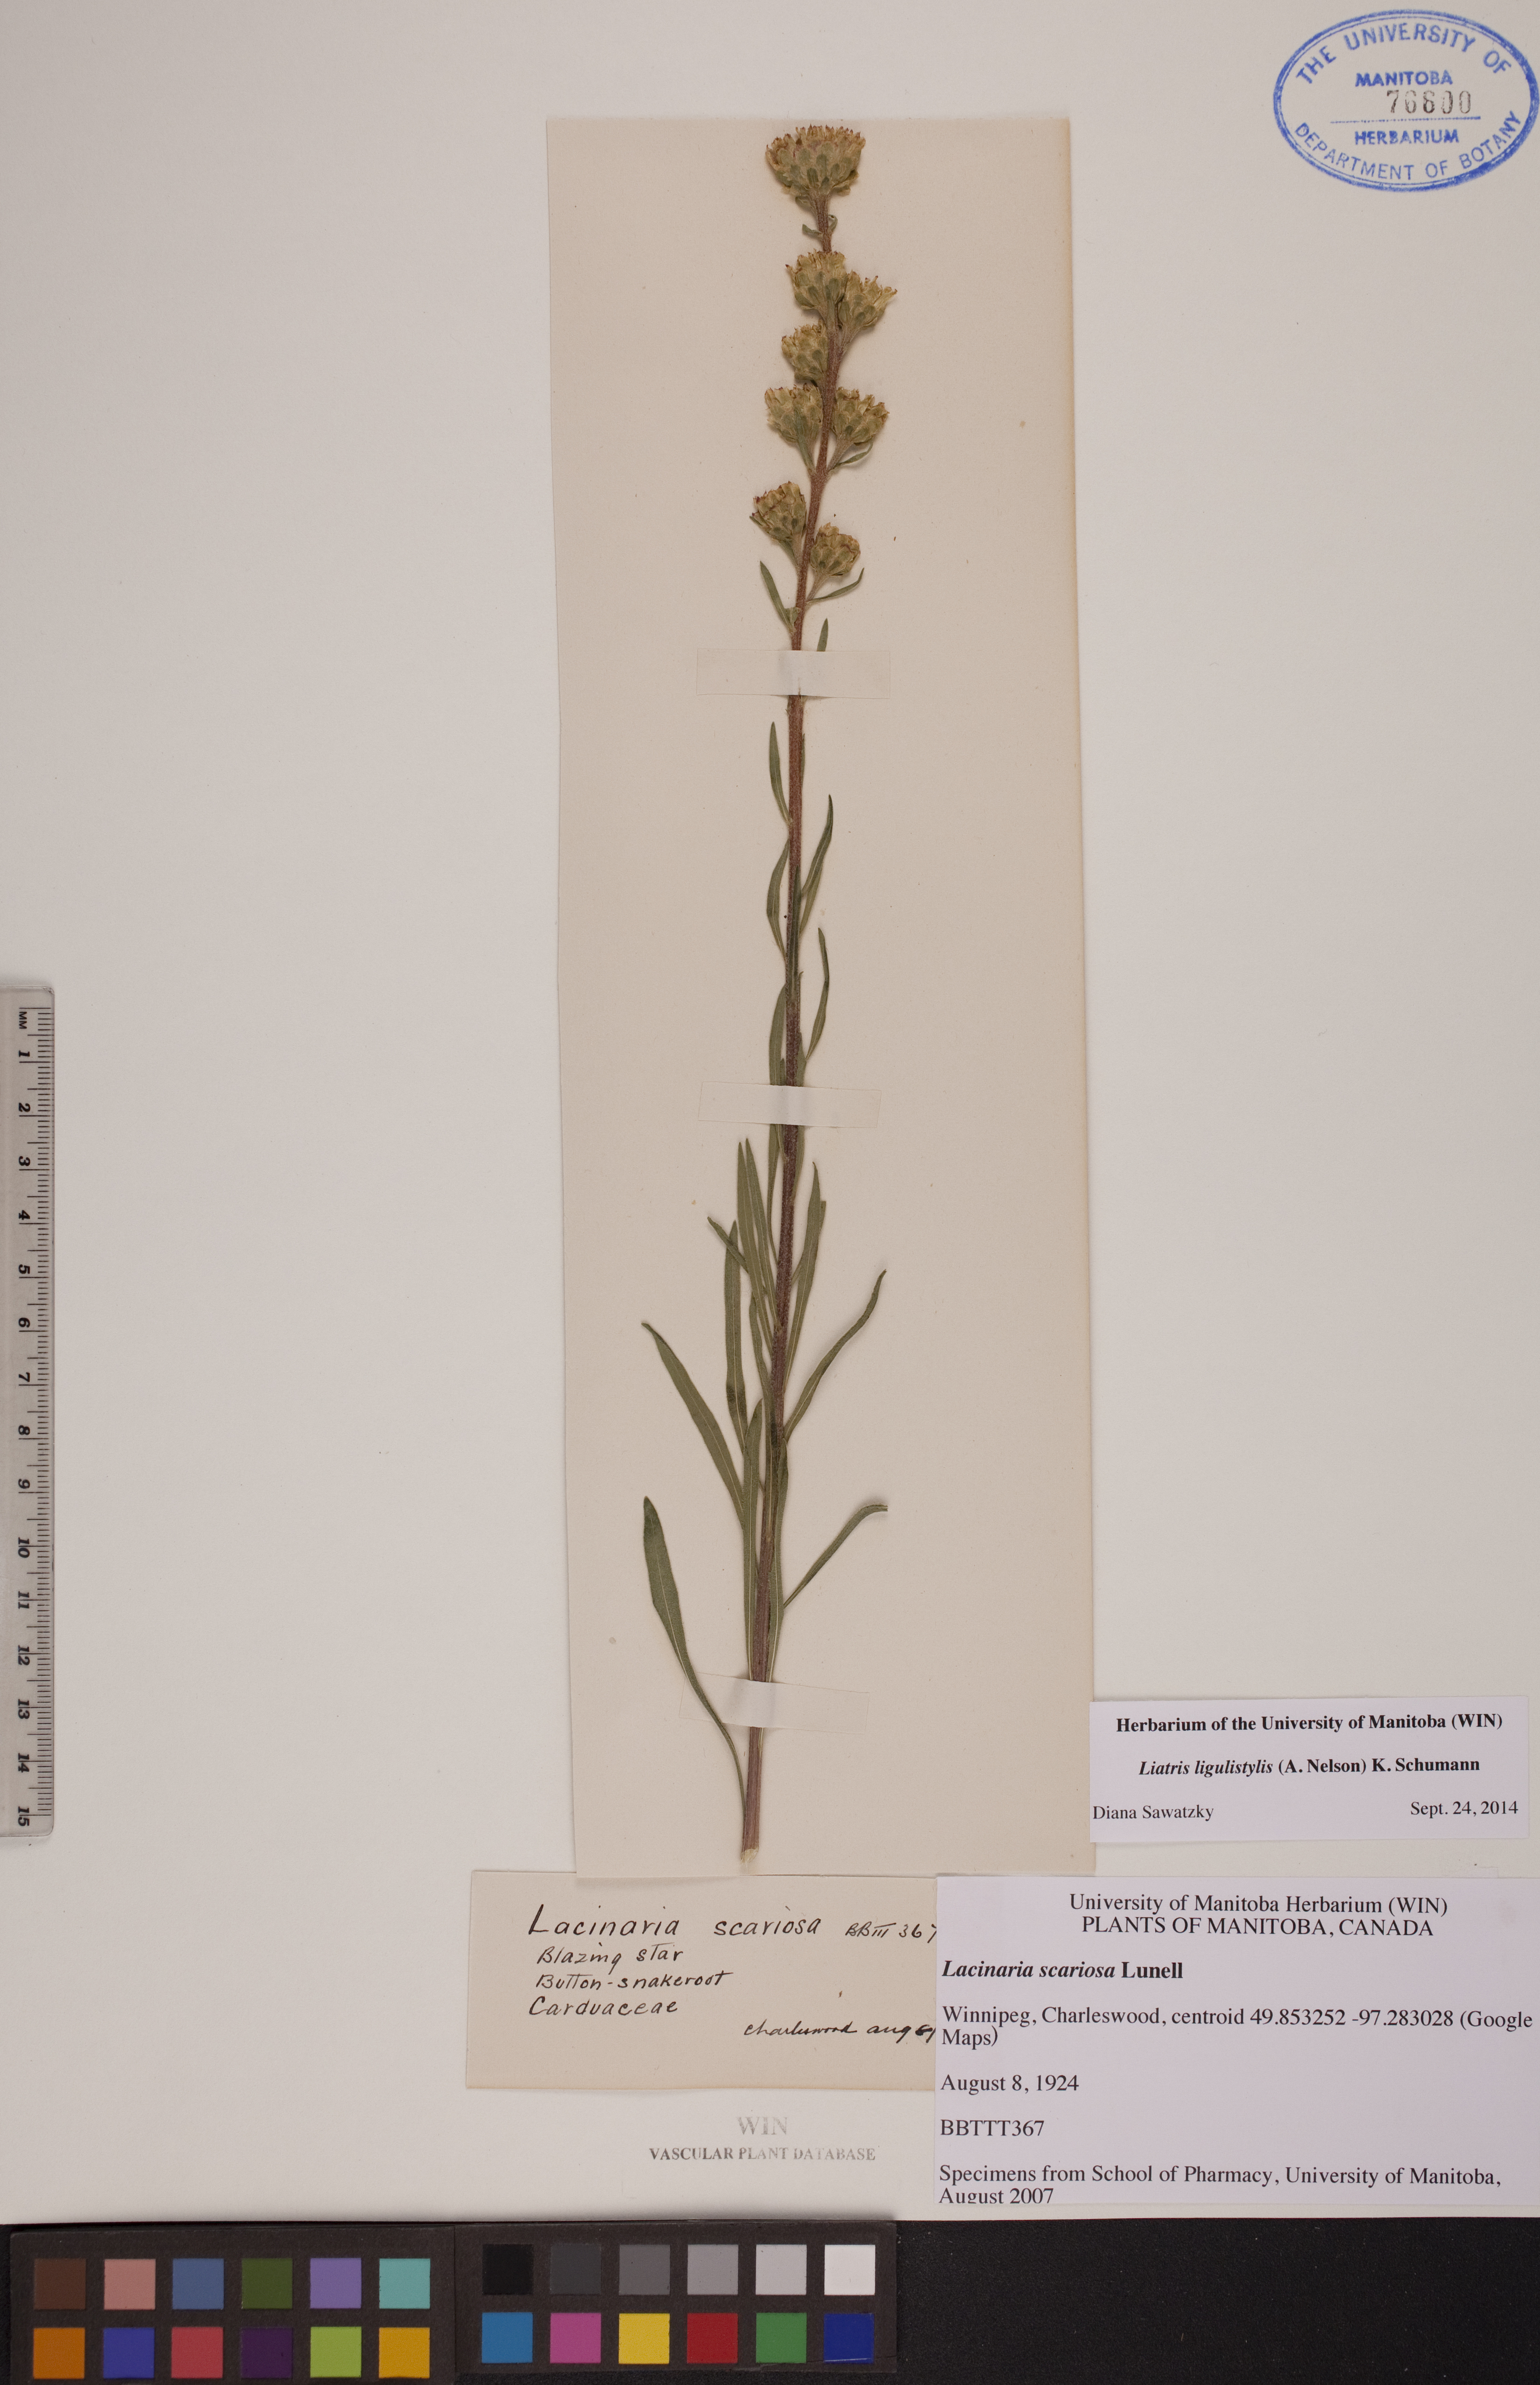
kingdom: Plantae
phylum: Tracheophyta
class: Magnoliopsida
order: Asterales
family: Asteraceae
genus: Liatris
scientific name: Liatris ligulistylis
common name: Northern plains gayfeather
